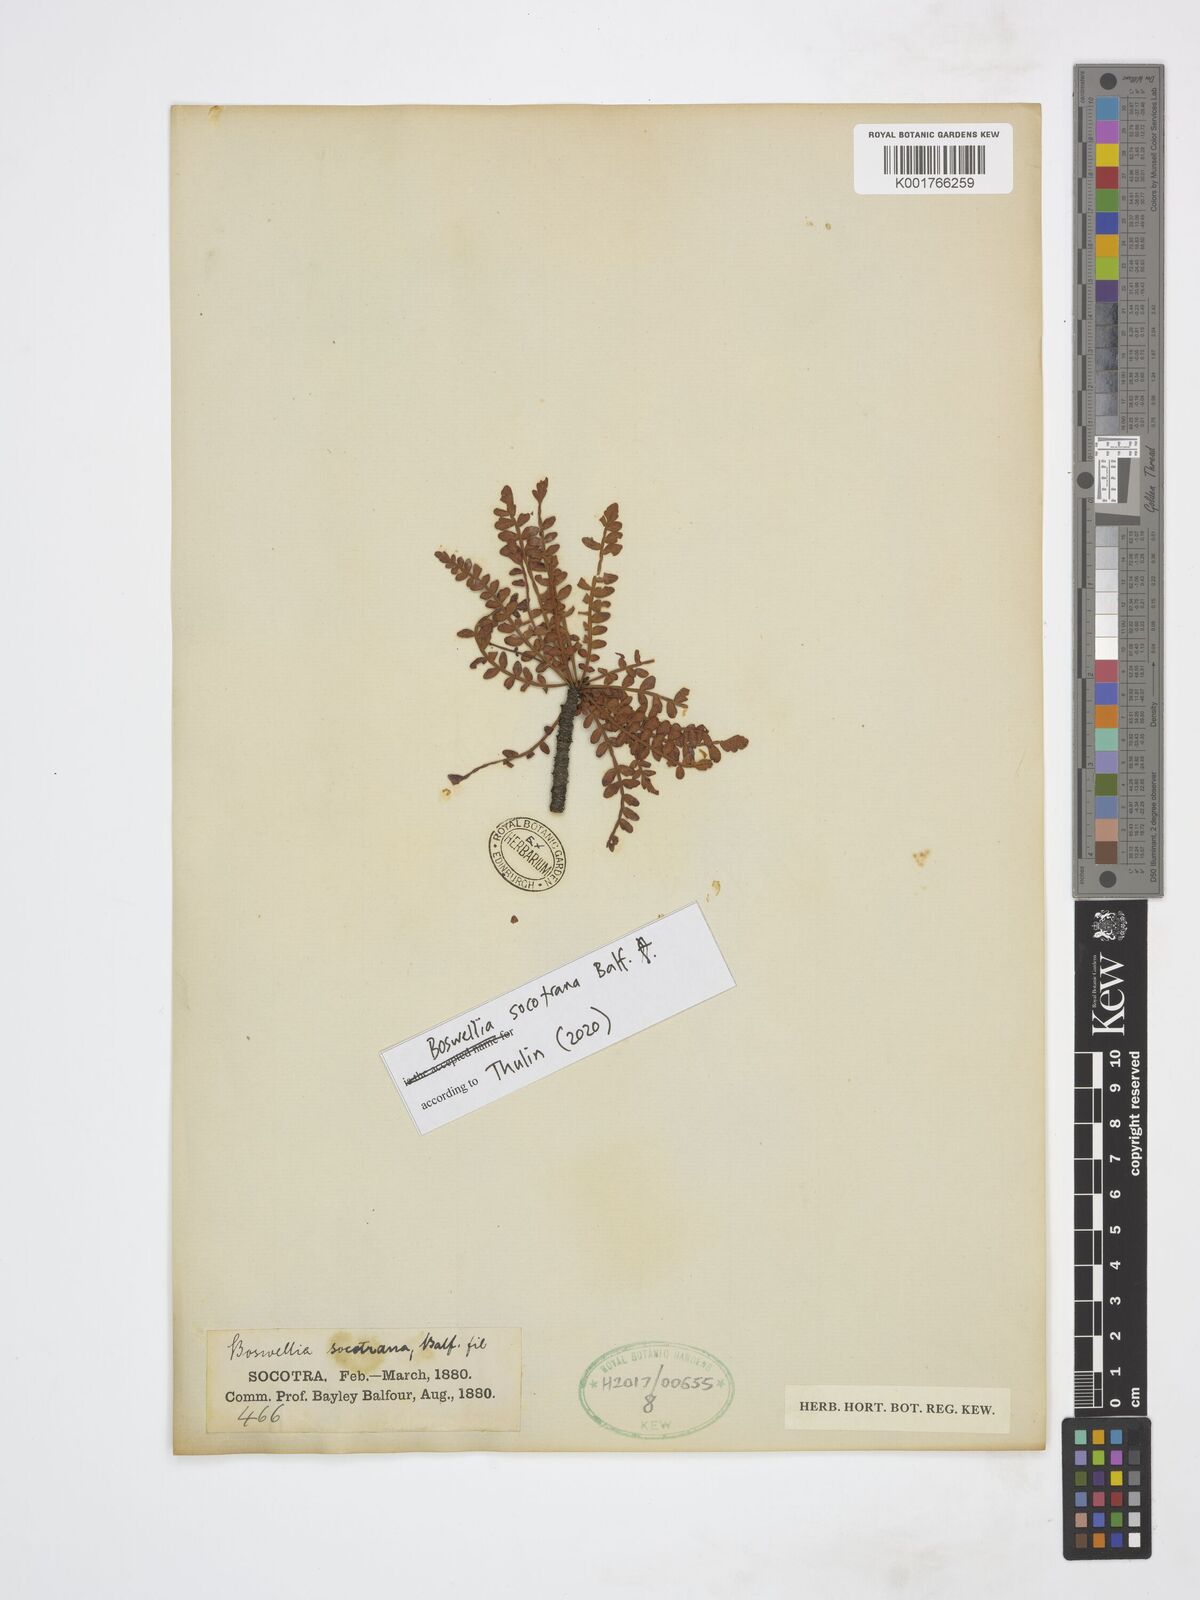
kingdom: Plantae
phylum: Tracheophyta
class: Magnoliopsida
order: Sapindales
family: Burseraceae
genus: Boswellia
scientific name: Boswellia socotrana
